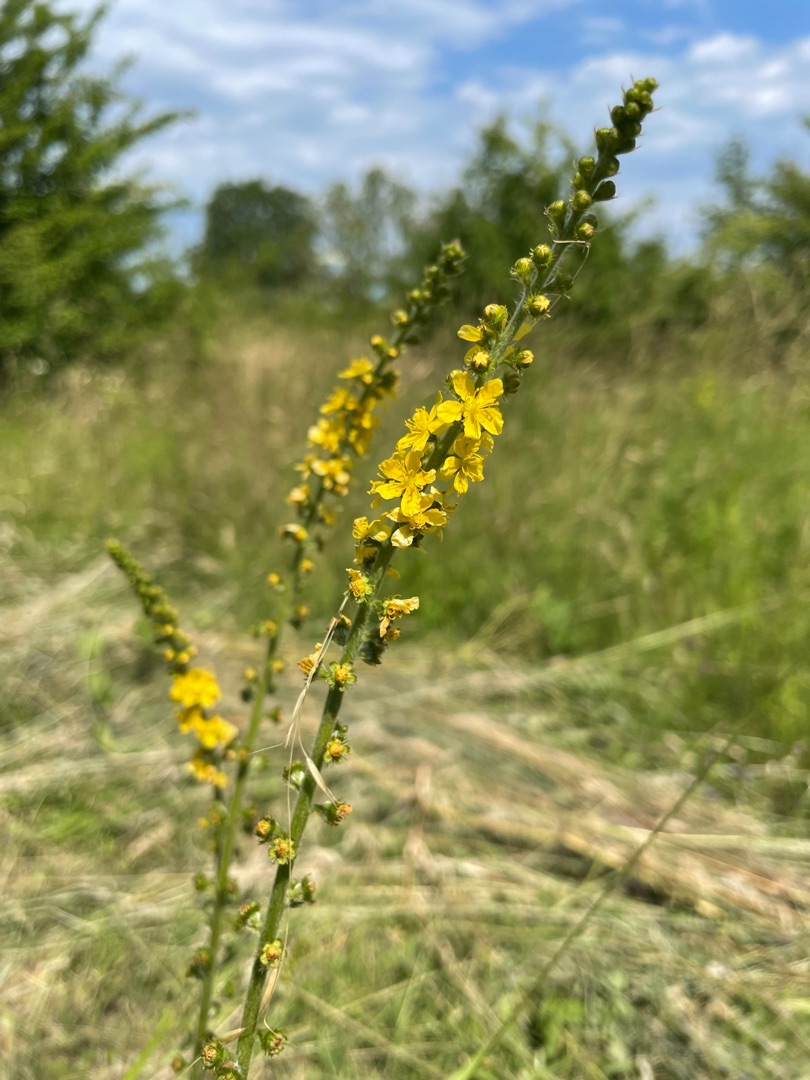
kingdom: Plantae
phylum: Tracheophyta
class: Magnoliopsida
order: Rosales
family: Rosaceae
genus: Agrimonia
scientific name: Agrimonia eupatoria
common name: Almindelig agermåne
